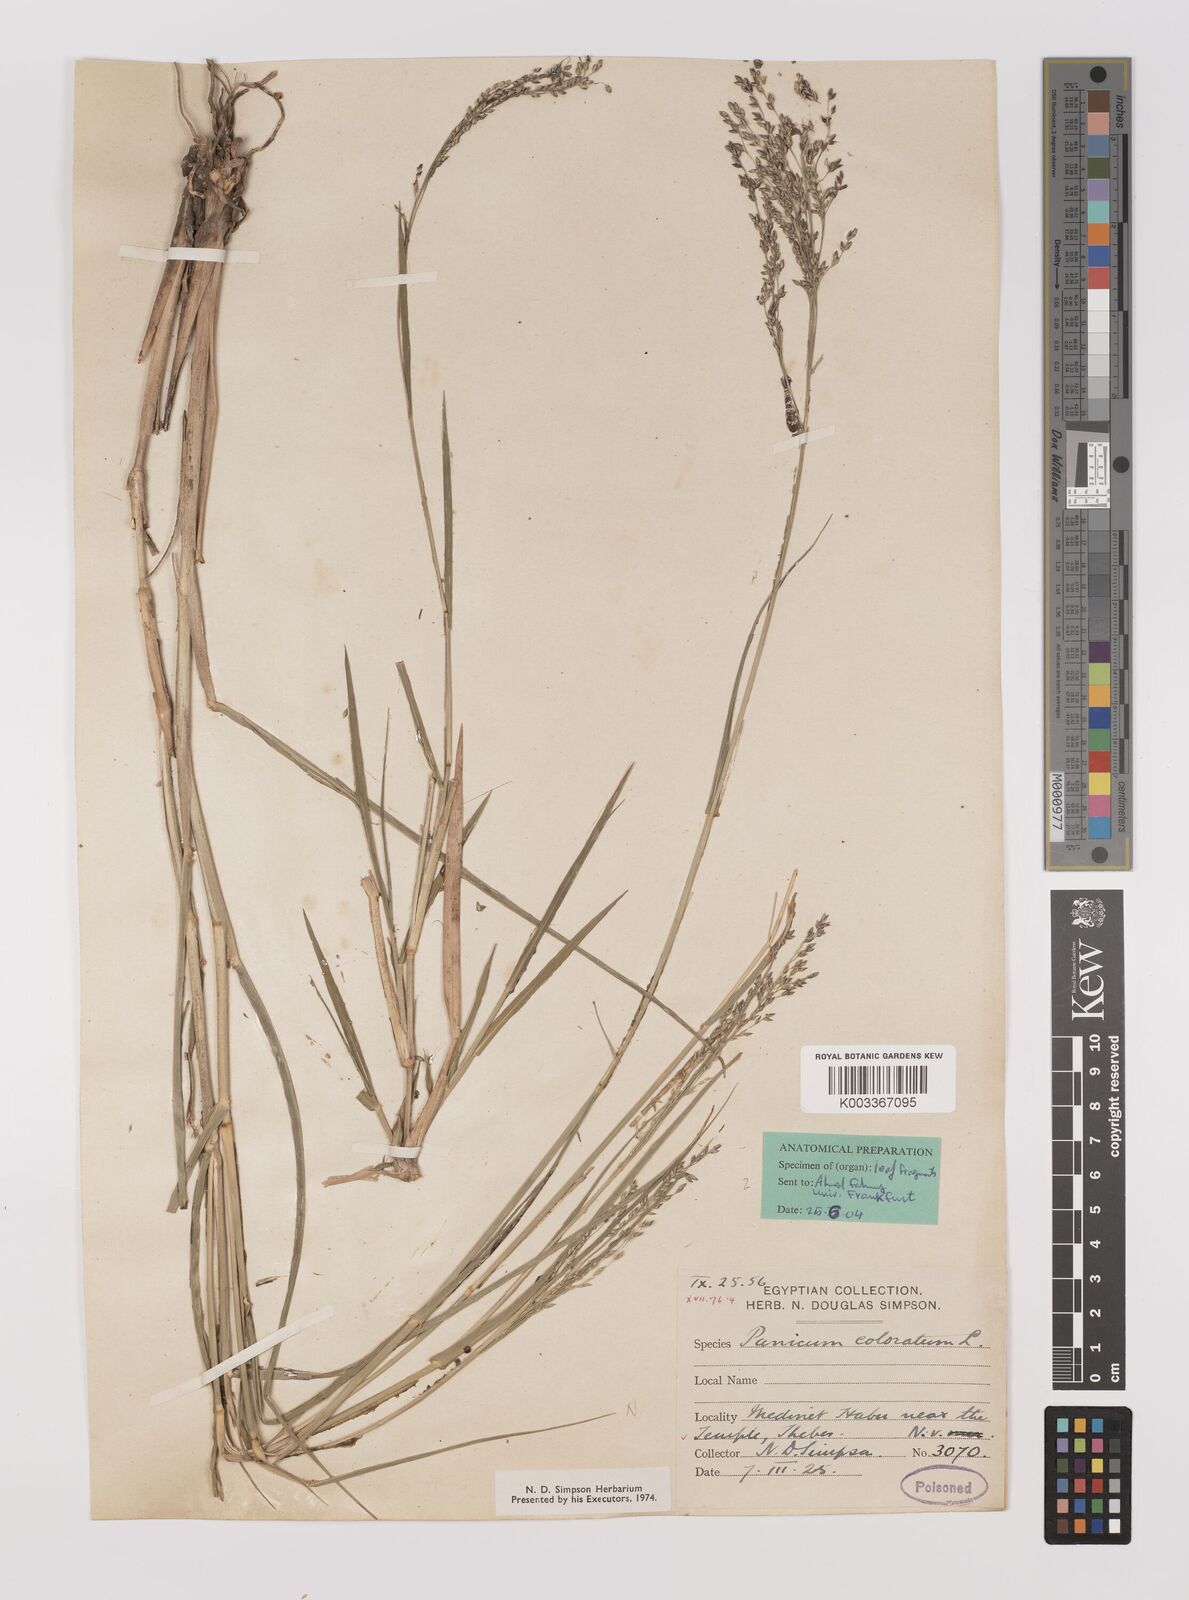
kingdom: Plantae
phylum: Tracheophyta
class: Liliopsida
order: Poales
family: Poaceae
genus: Panicum
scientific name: Panicum coloratum
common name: Kleingrass
